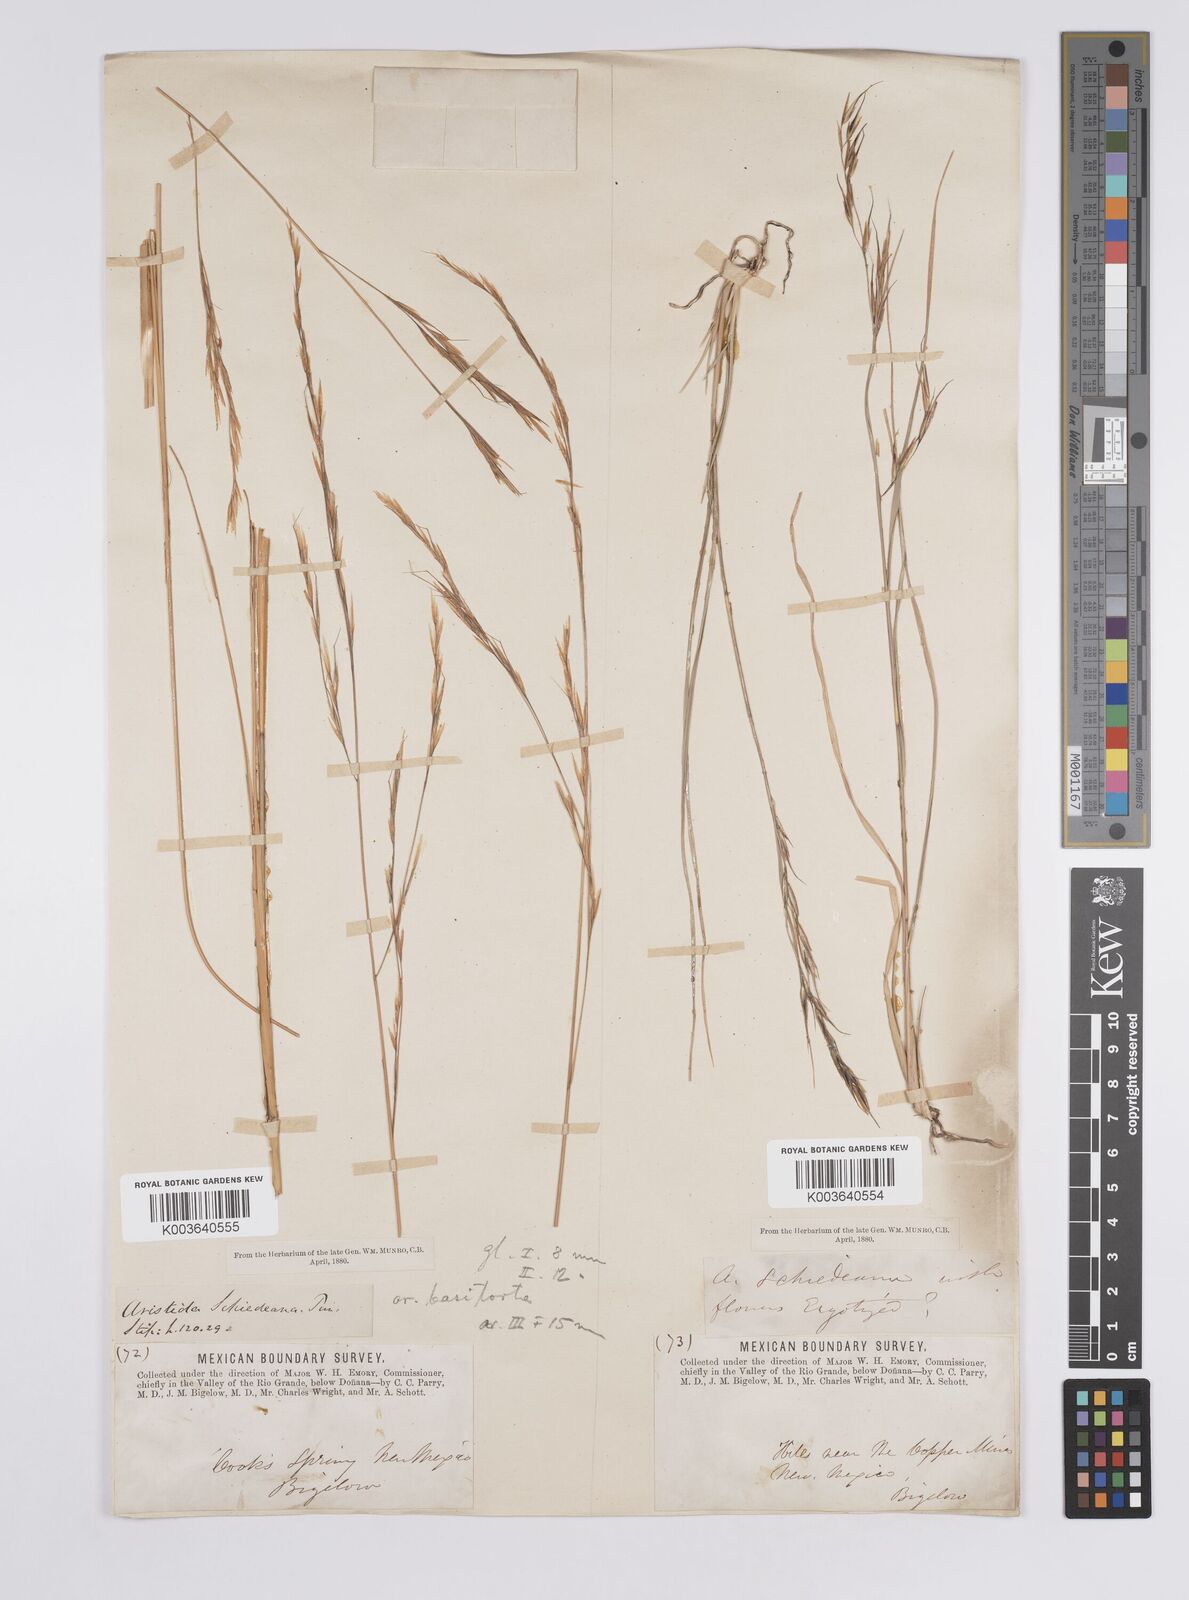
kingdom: Plantae
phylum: Tracheophyta
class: Liliopsida
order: Poales
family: Poaceae
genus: Aristida
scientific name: Aristida schiedeana
